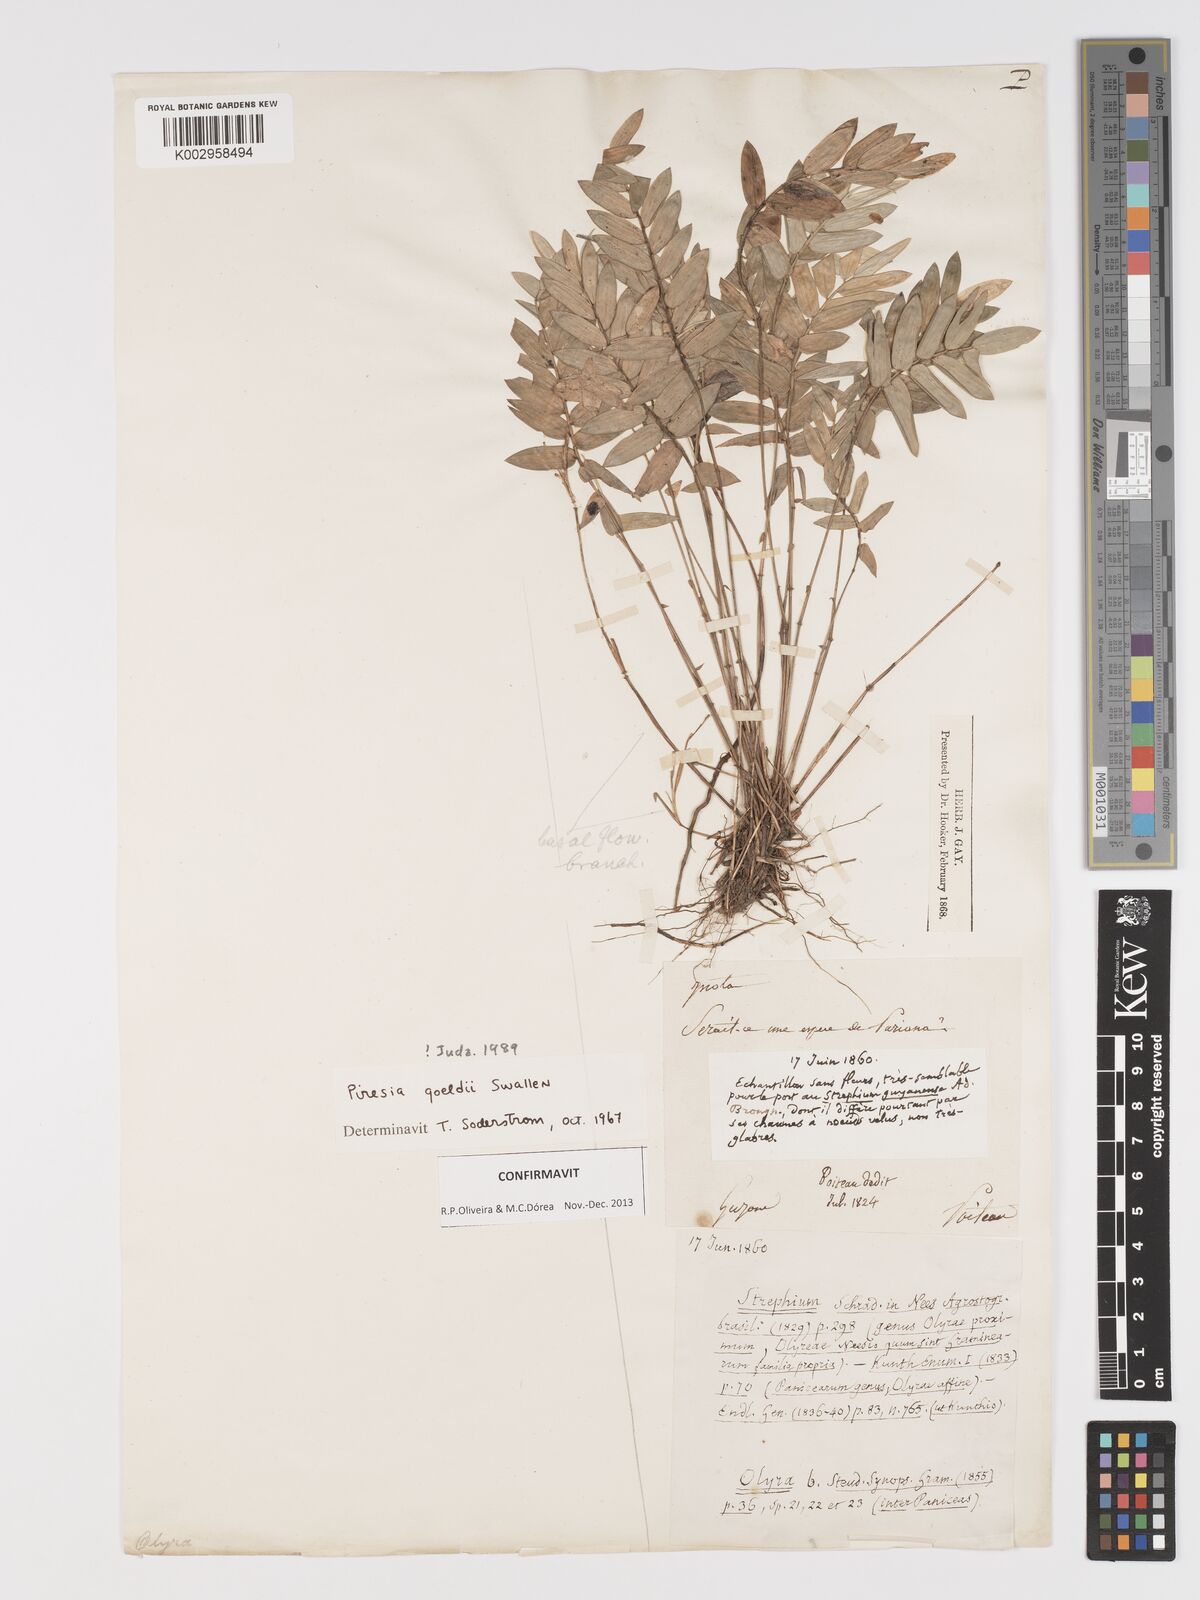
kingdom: Plantae
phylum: Tracheophyta
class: Liliopsida
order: Poales
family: Poaceae
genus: Piresia
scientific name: Piresia goeldii
